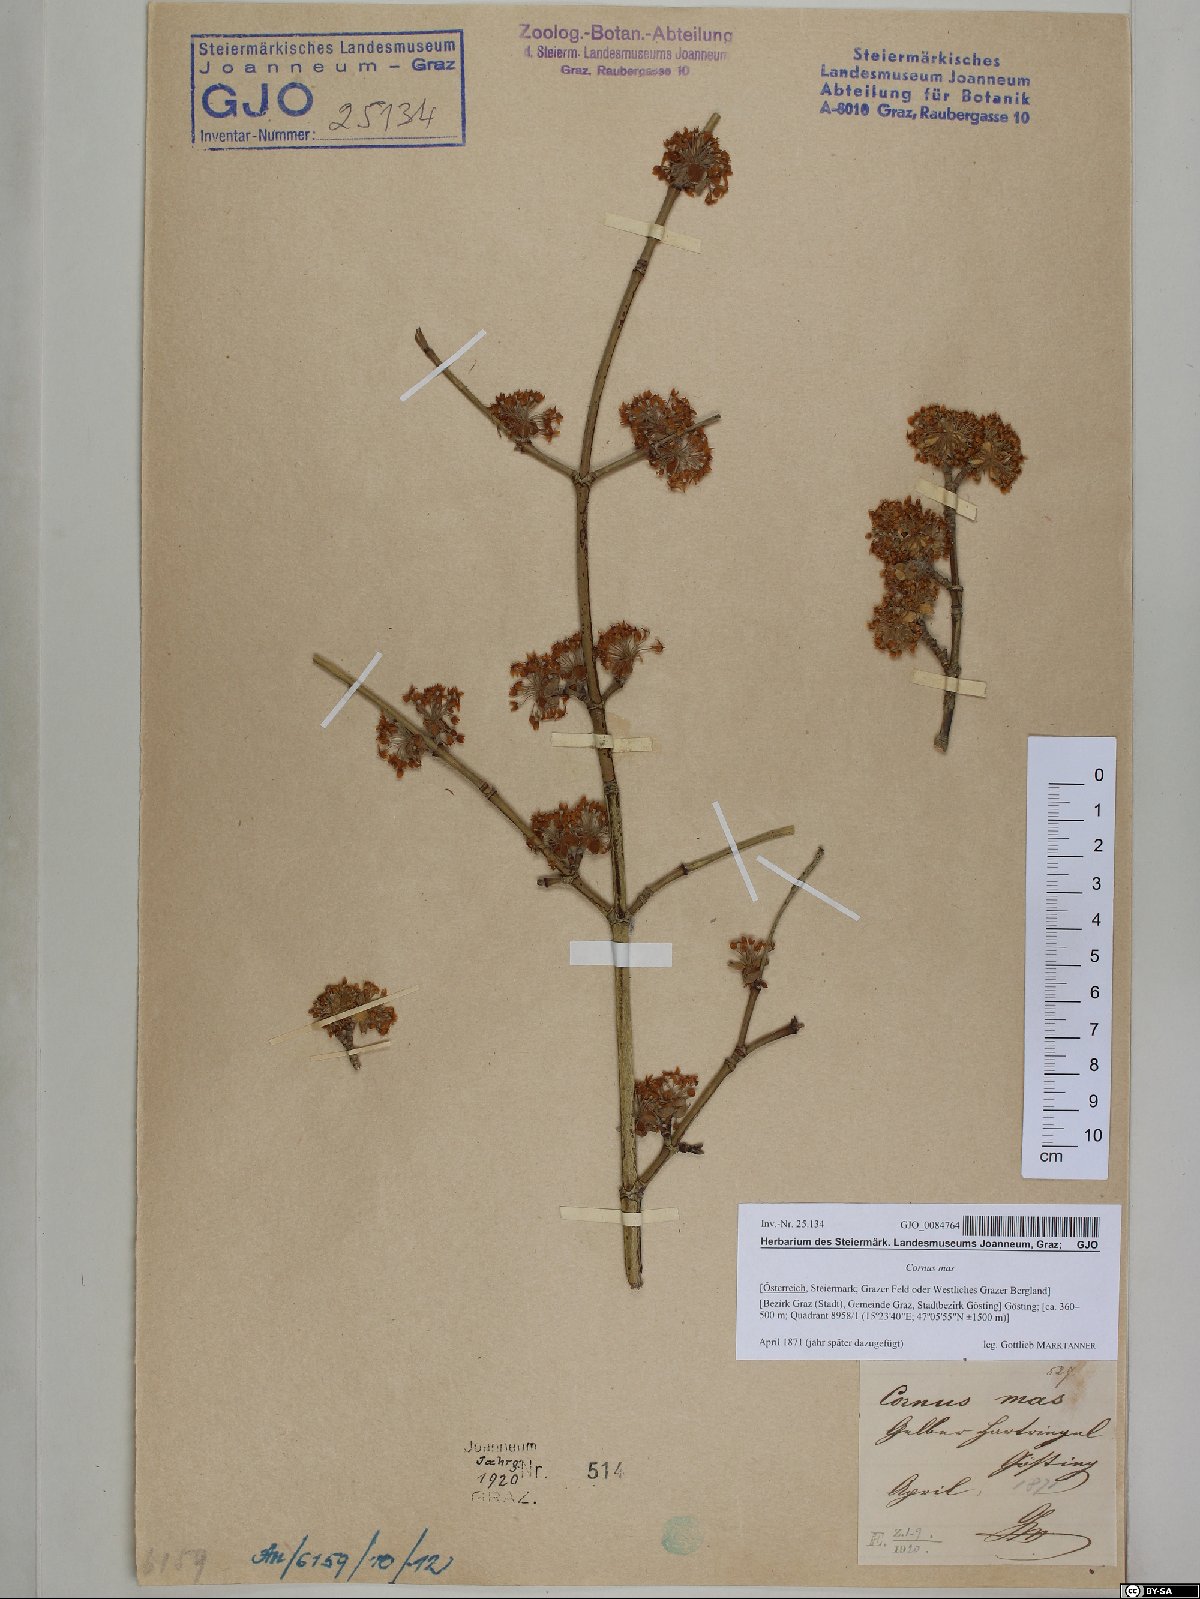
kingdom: Plantae
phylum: Tracheophyta
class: Magnoliopsida
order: Cornales
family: Cornaceae
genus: Cornus
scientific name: Cornus mas
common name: Cornelian-cherry
